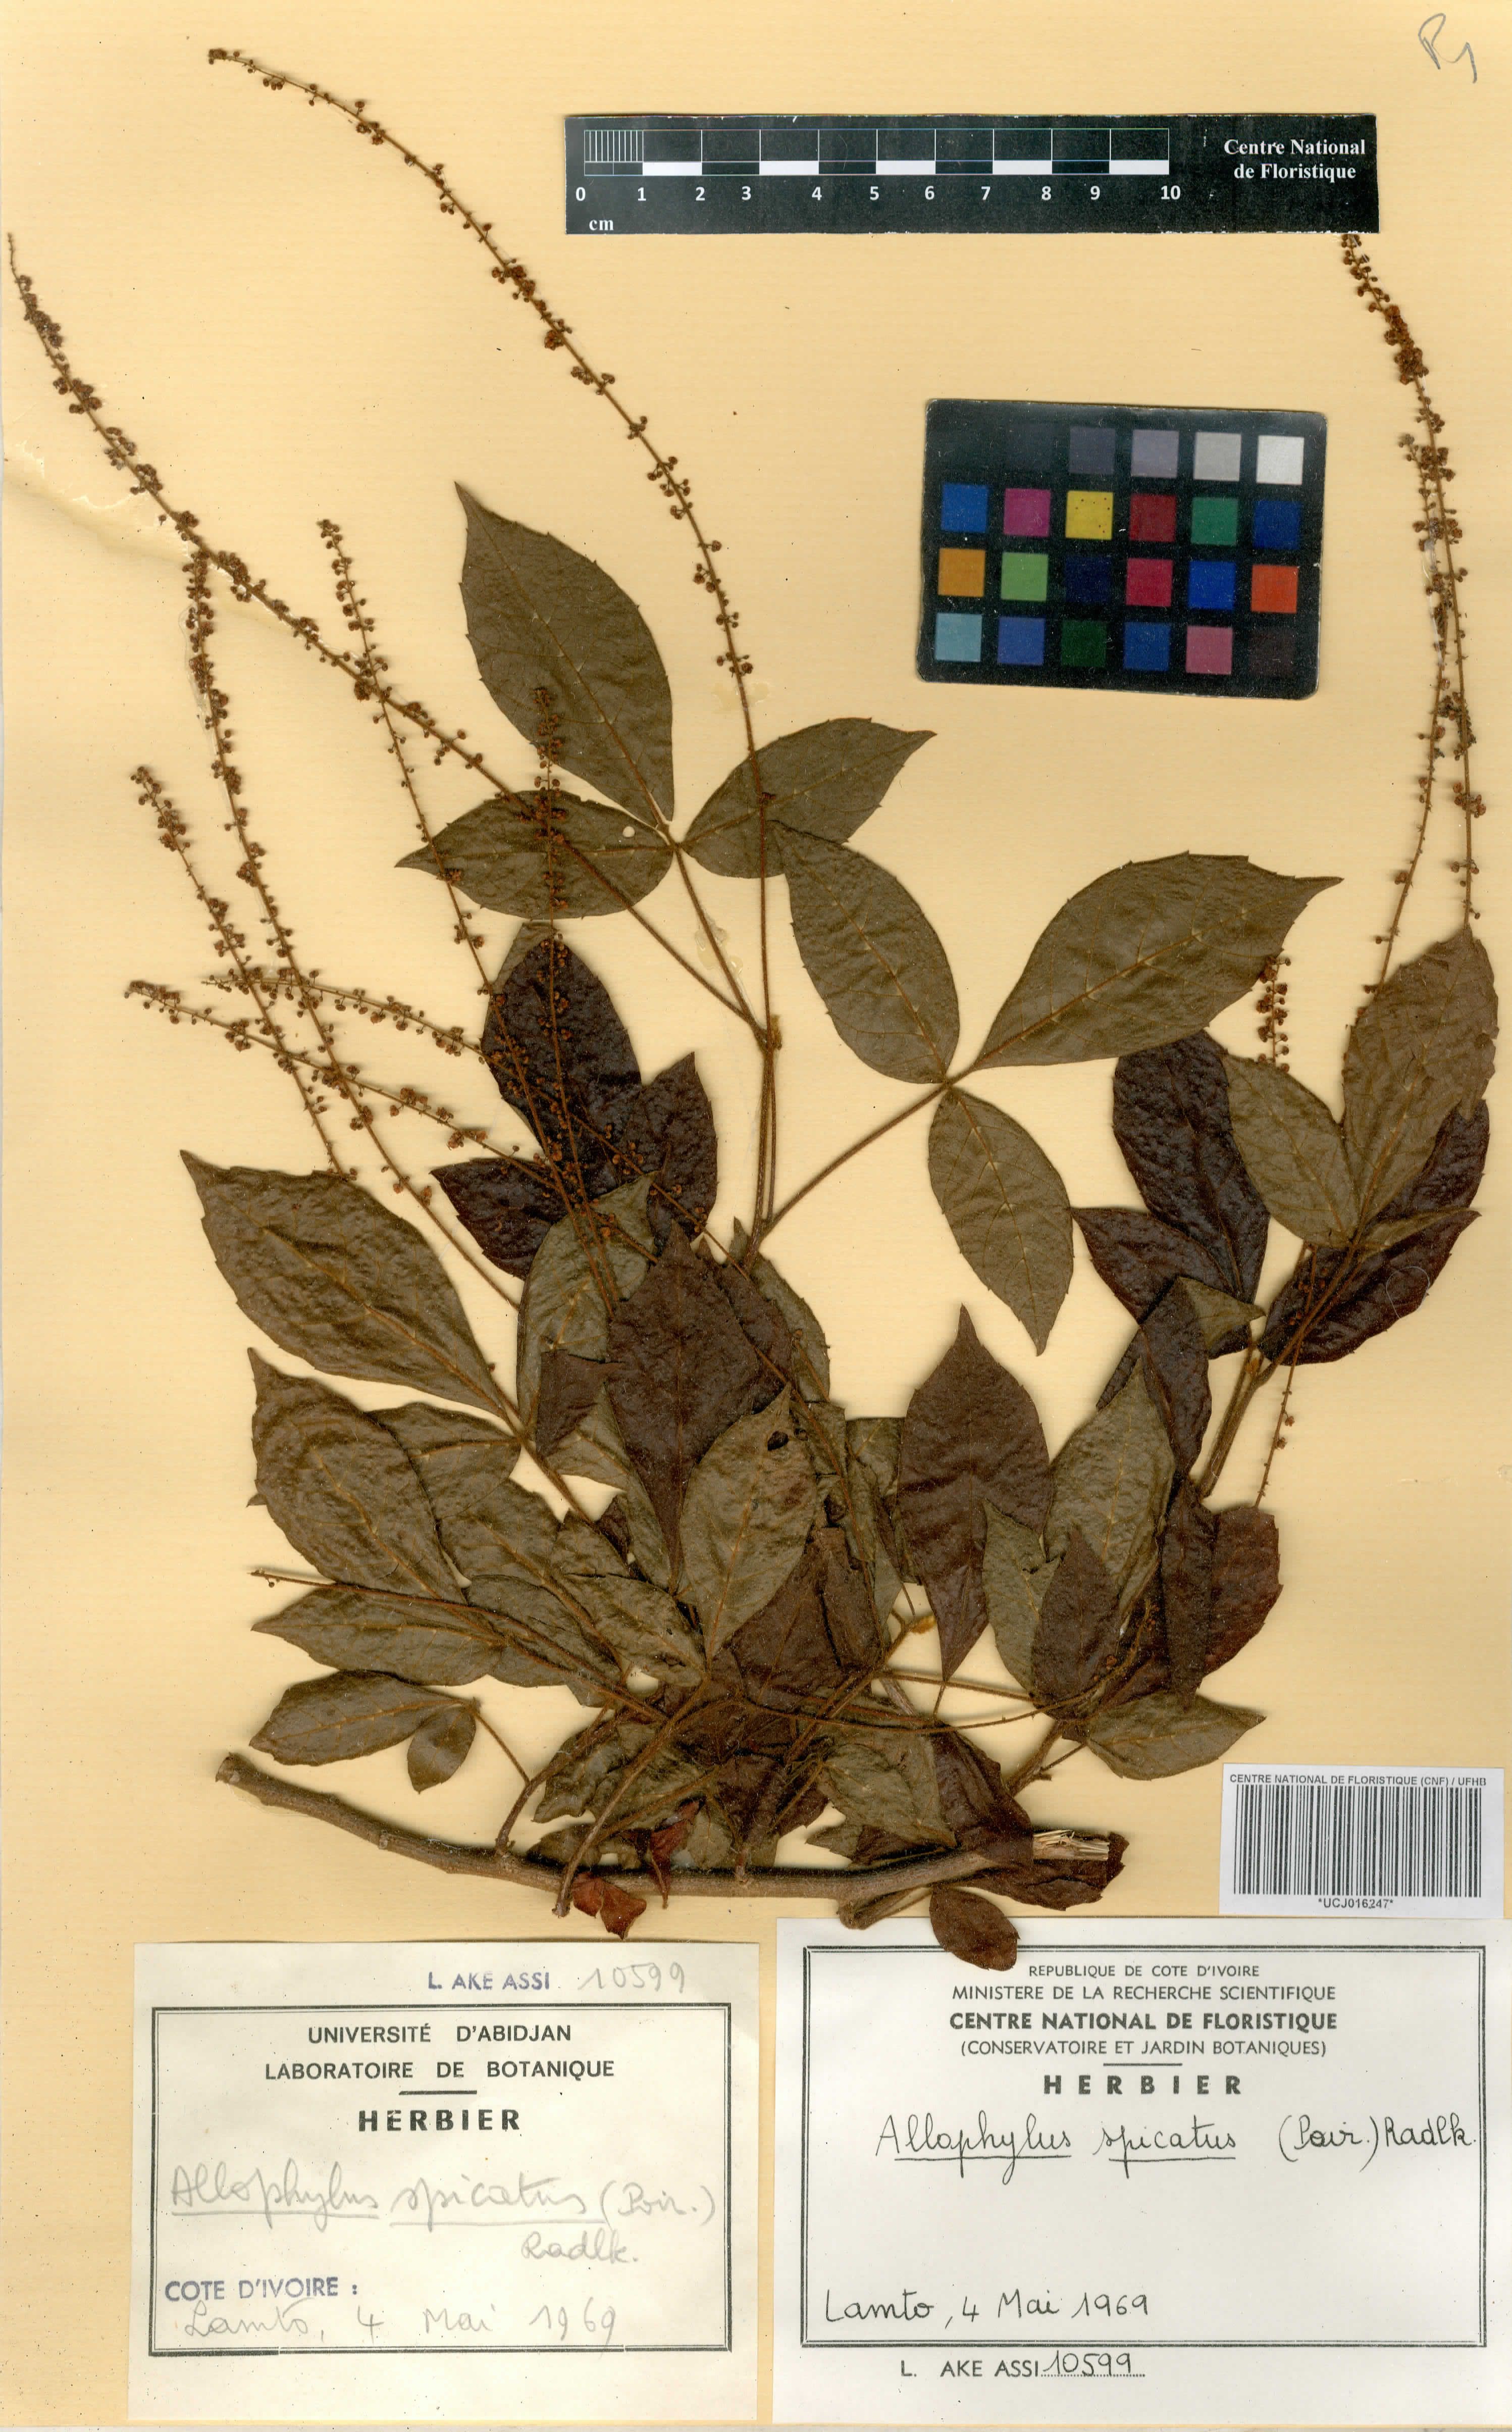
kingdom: Plantae
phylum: Tracheophyta
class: Magnoliopsida
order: Sapindales
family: Sapindaceae
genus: Allophylus
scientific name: Allophylus spicatus
